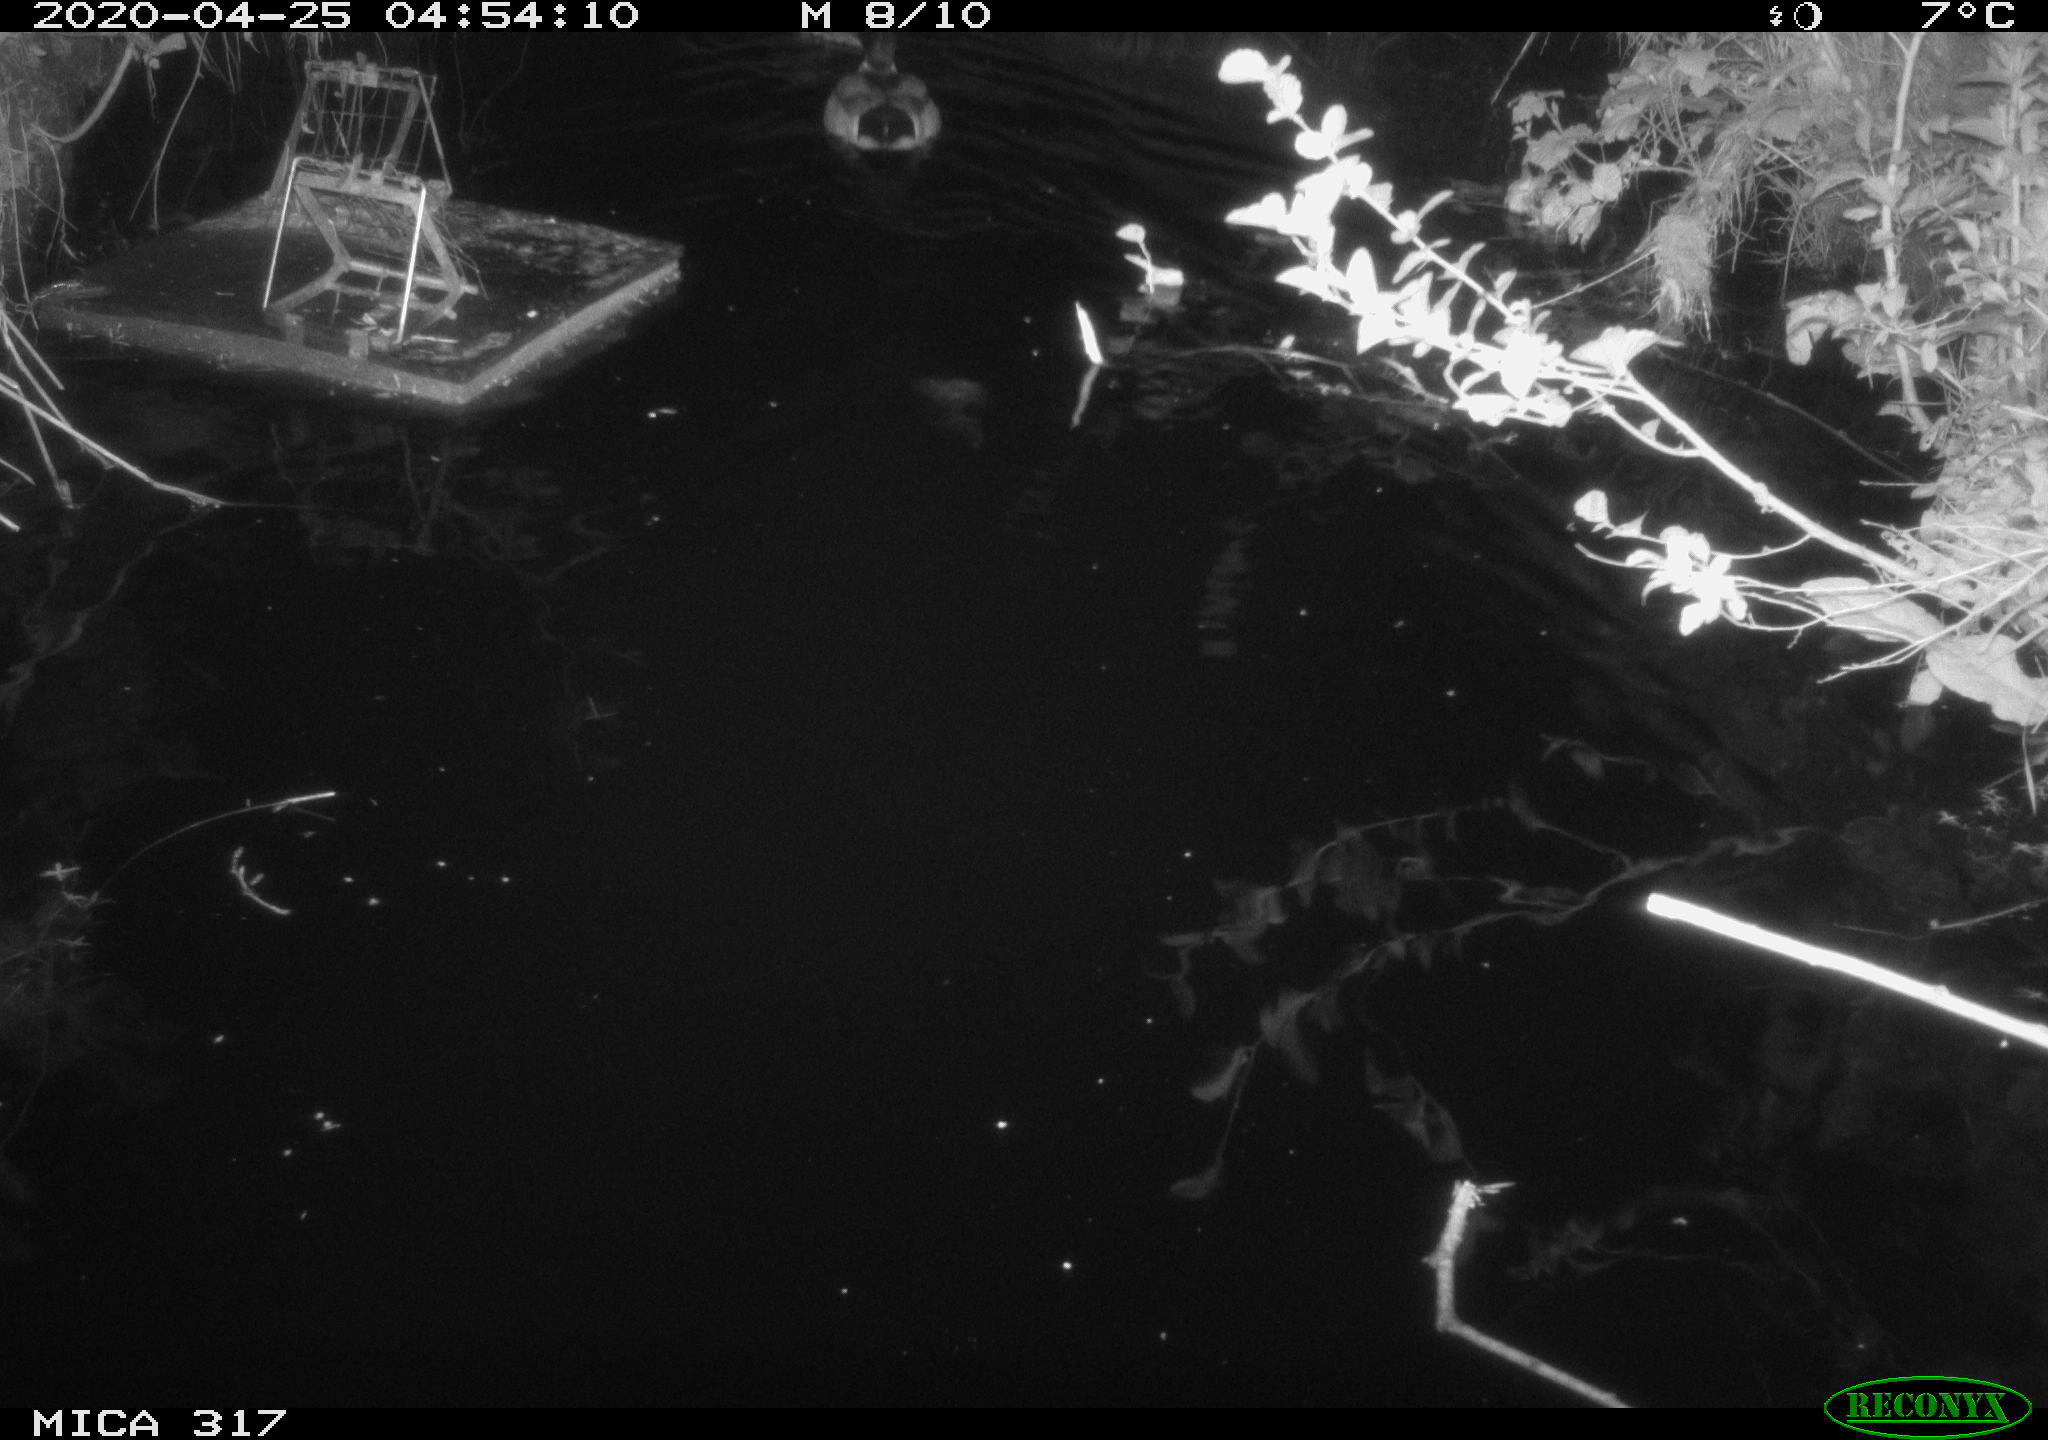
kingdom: Animalia
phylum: Chordata
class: Aves
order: Anseriformes
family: Anatidae
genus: Anas
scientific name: Anas platyrhynchos
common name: Mallard
